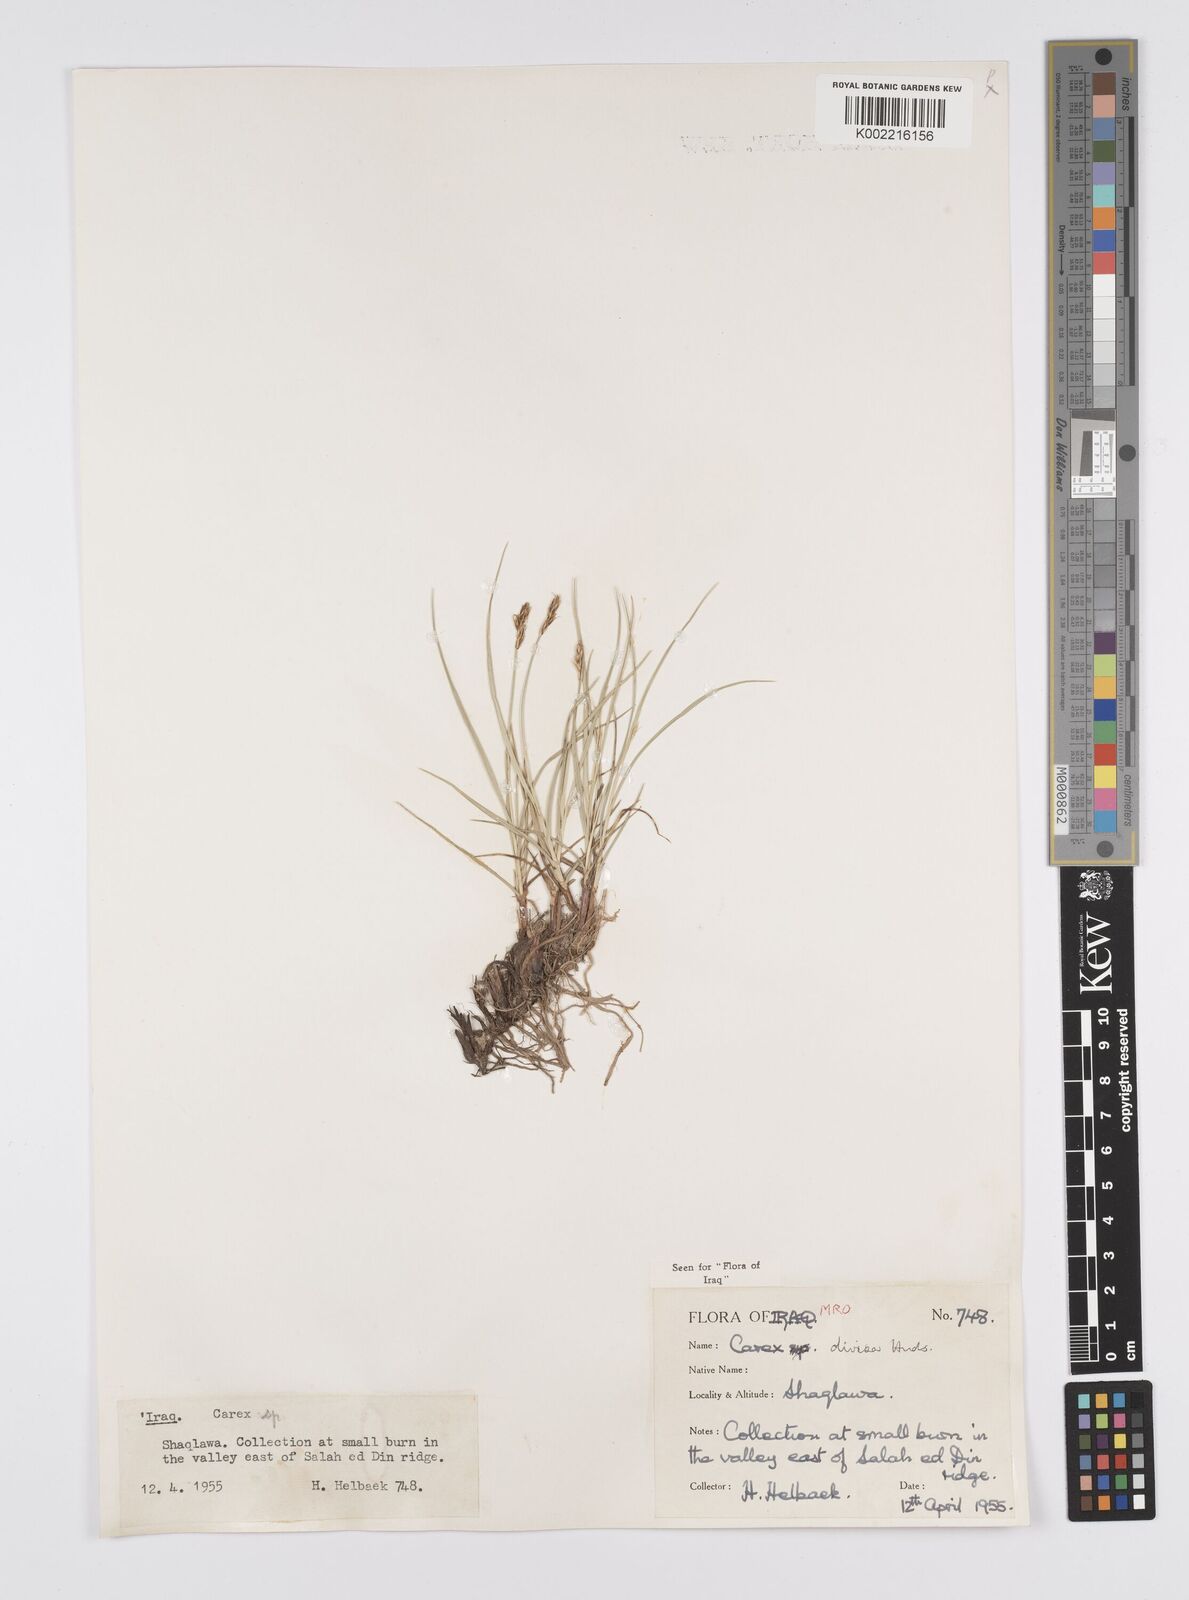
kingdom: Plantae
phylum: Tracheophyta
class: Liliopsida
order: Poales
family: Cyperaceae
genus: Carex
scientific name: Carex divisa
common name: Divided sedge
